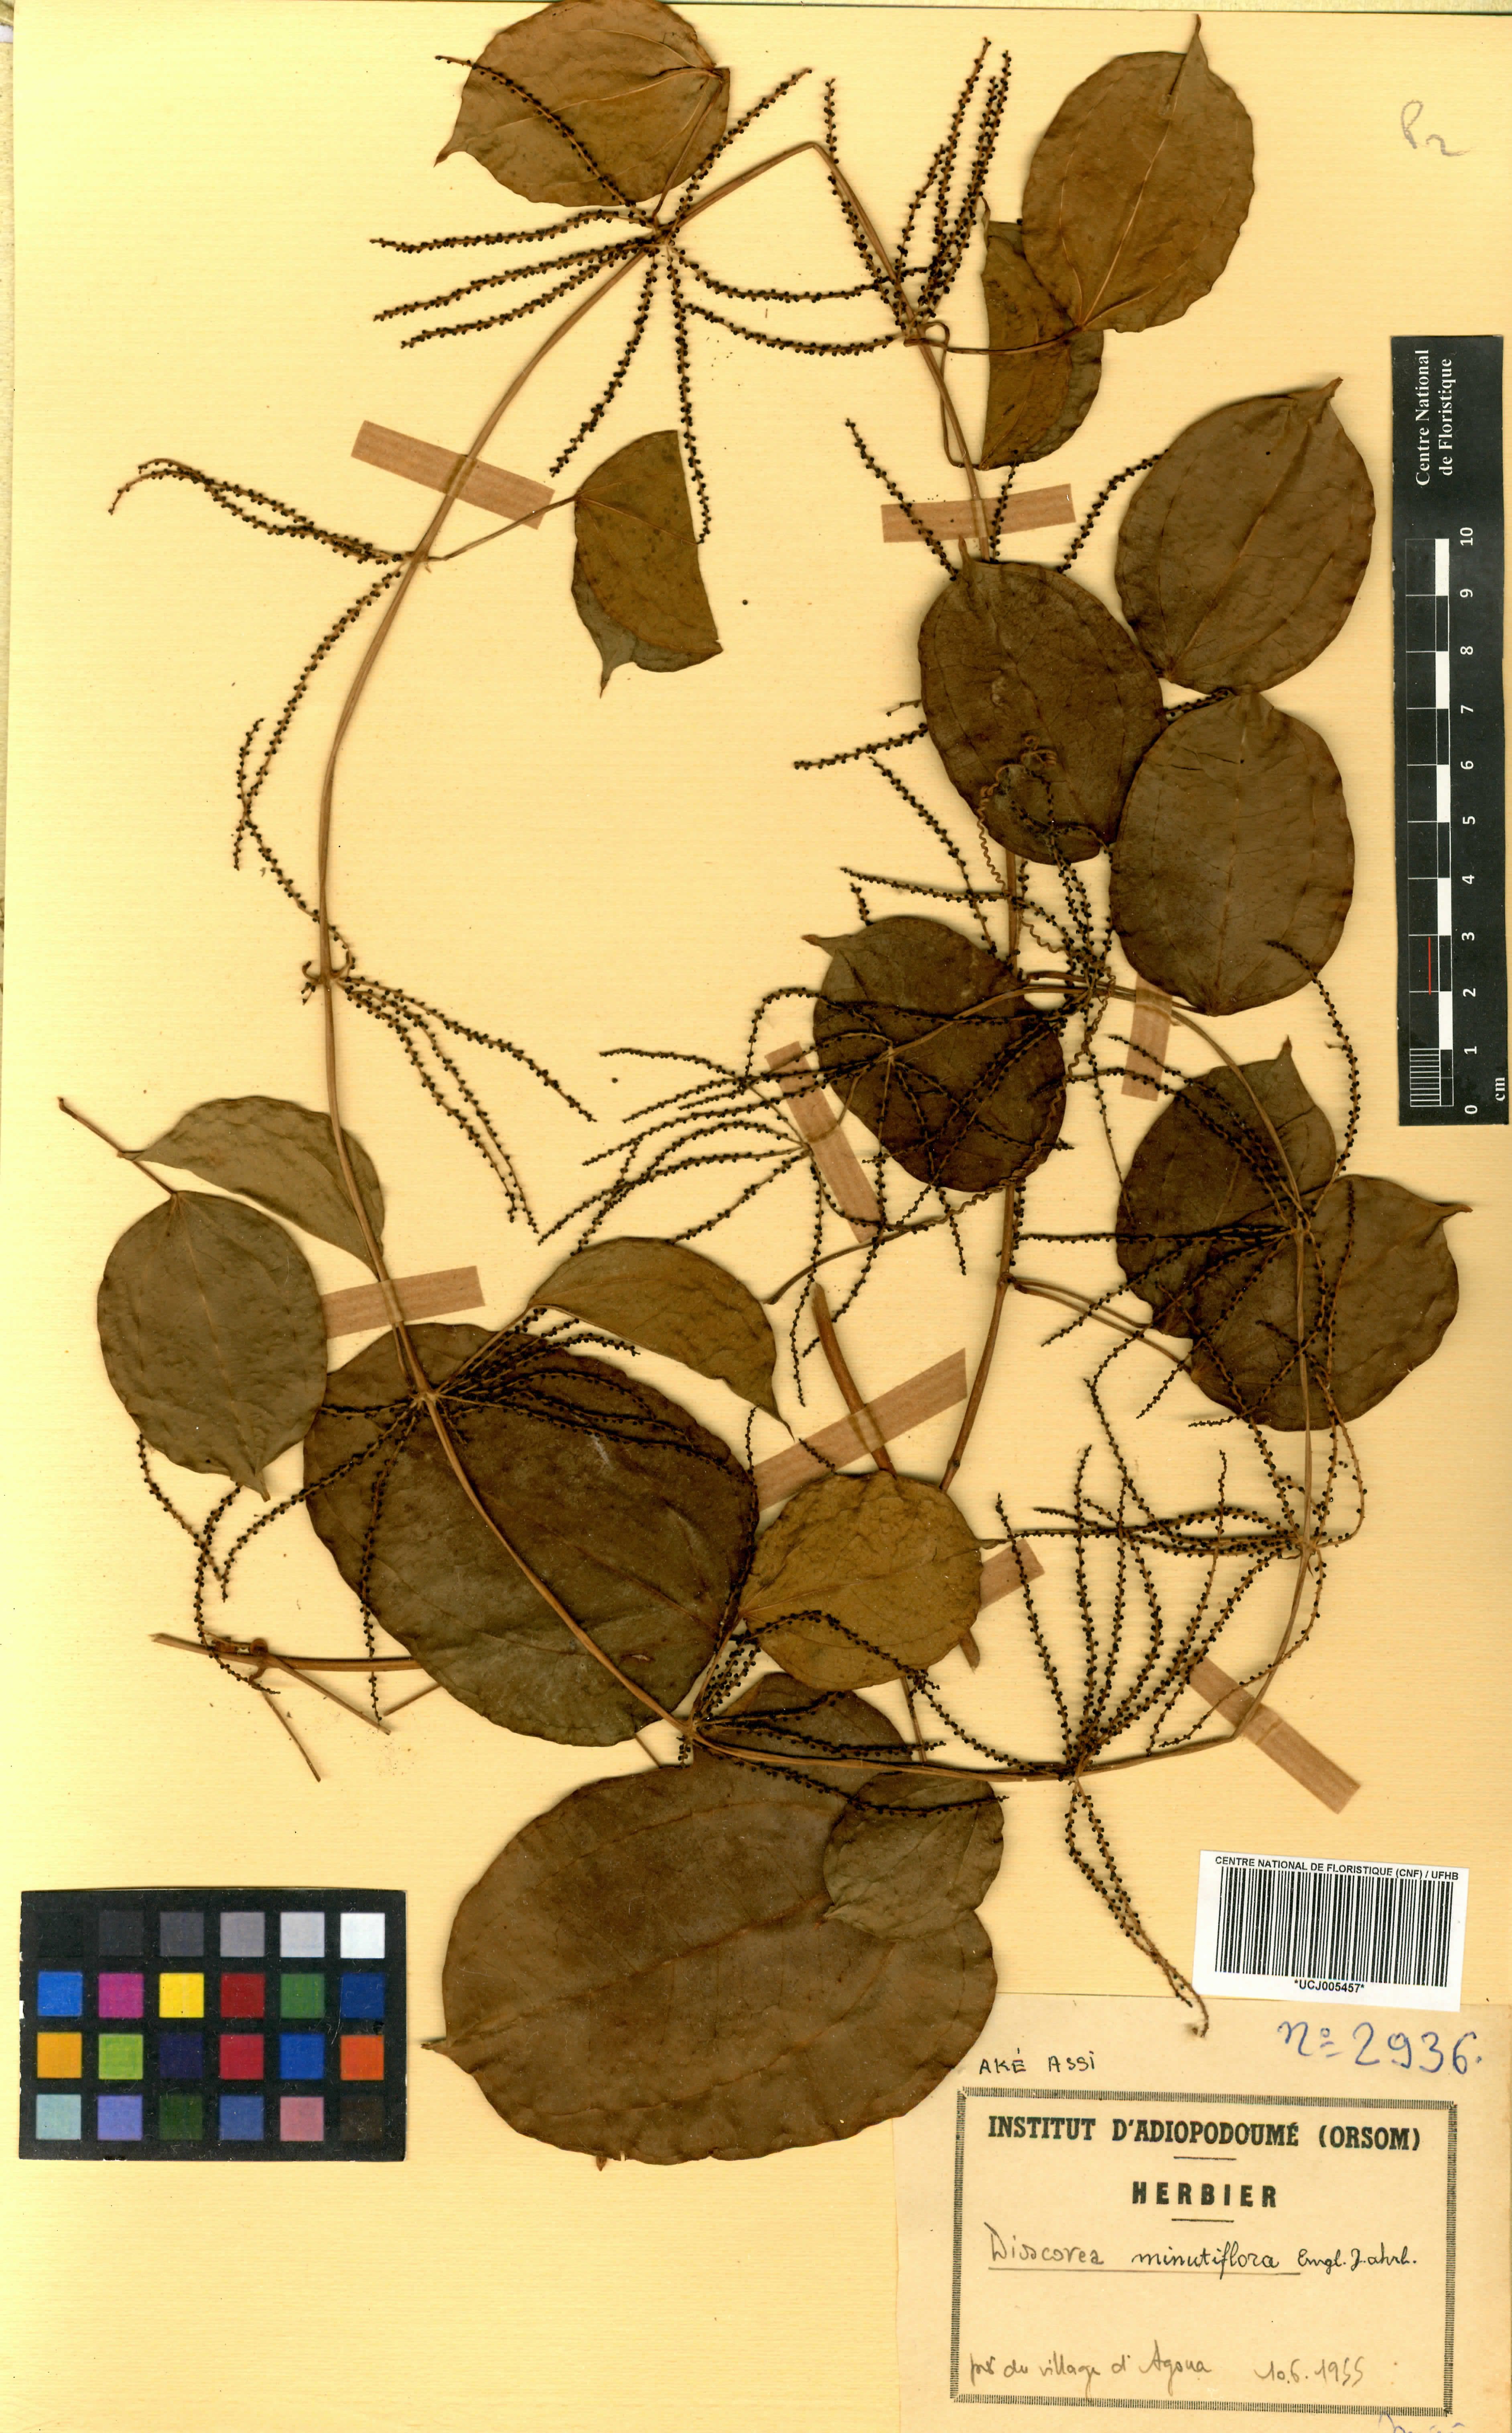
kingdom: Plantae
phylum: Tracheophyta
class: Liliopsida
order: Dioscoreales
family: Dioscoreaceae
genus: Dioscorea
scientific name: Dioscorea minutiflora
